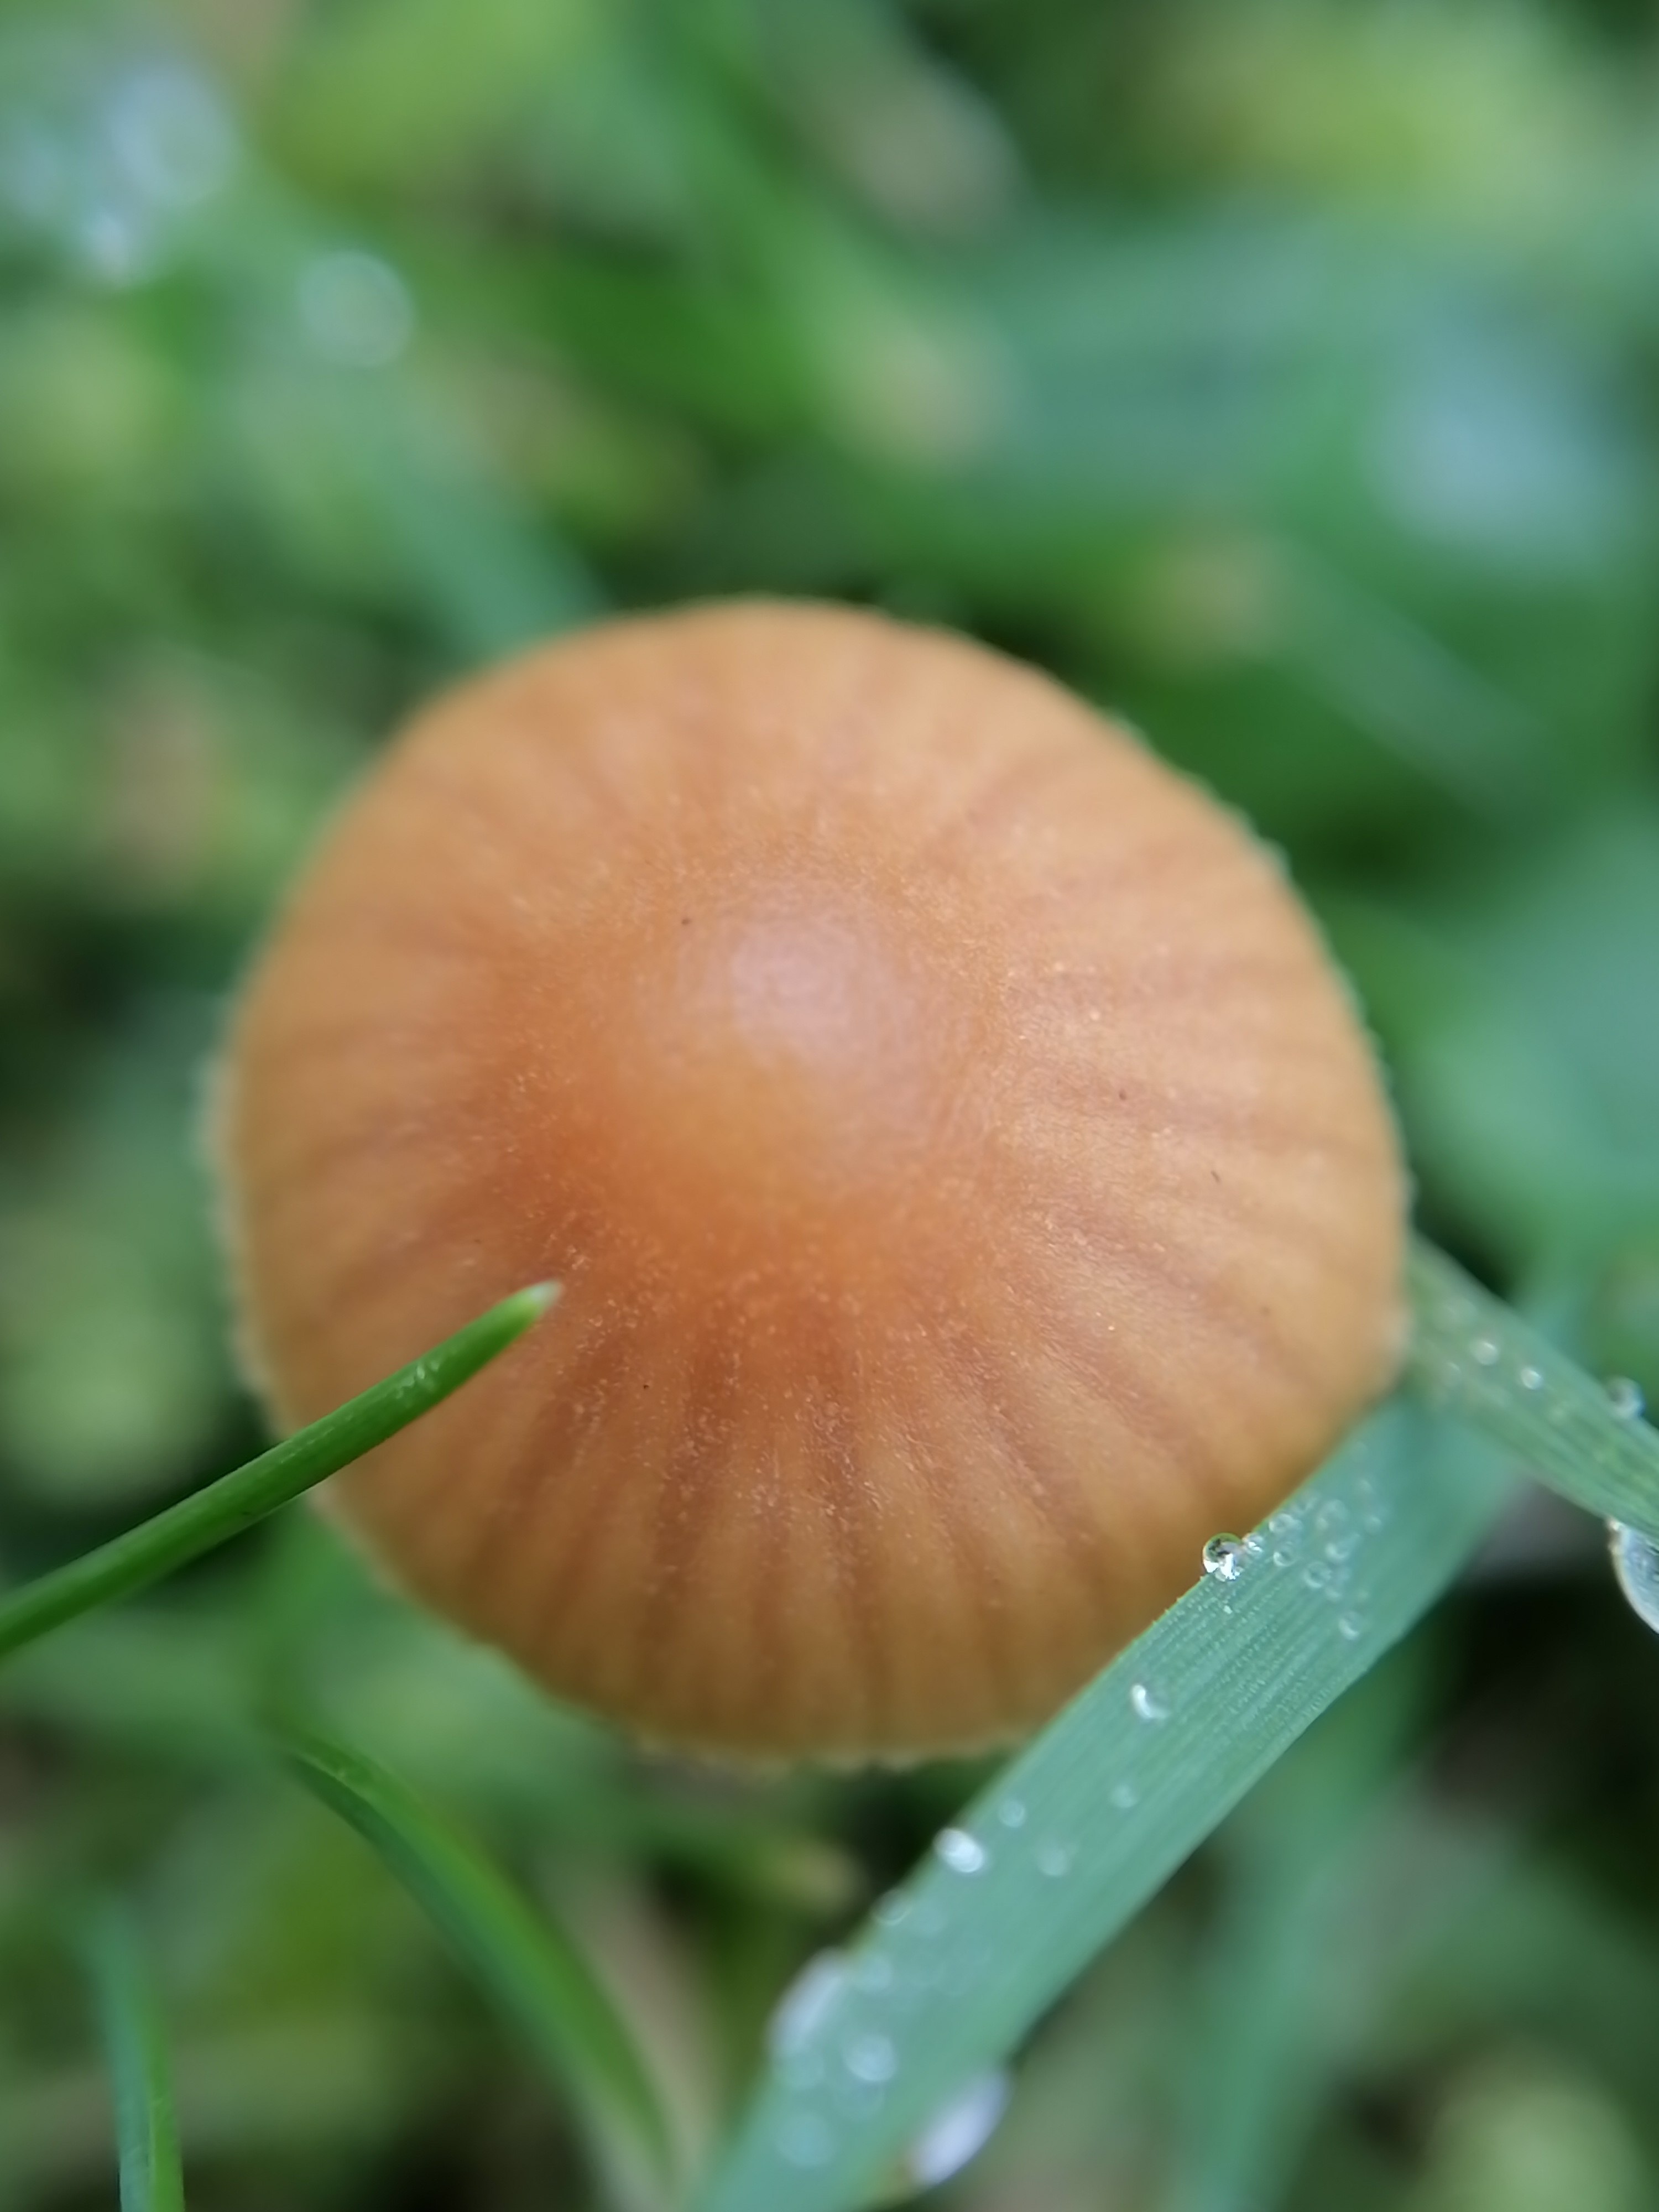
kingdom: Fungi
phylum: Basidiomycota
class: Agaricomycetes
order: Agaricales
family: Hymenogastraceae
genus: Galerina
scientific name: Galerina
